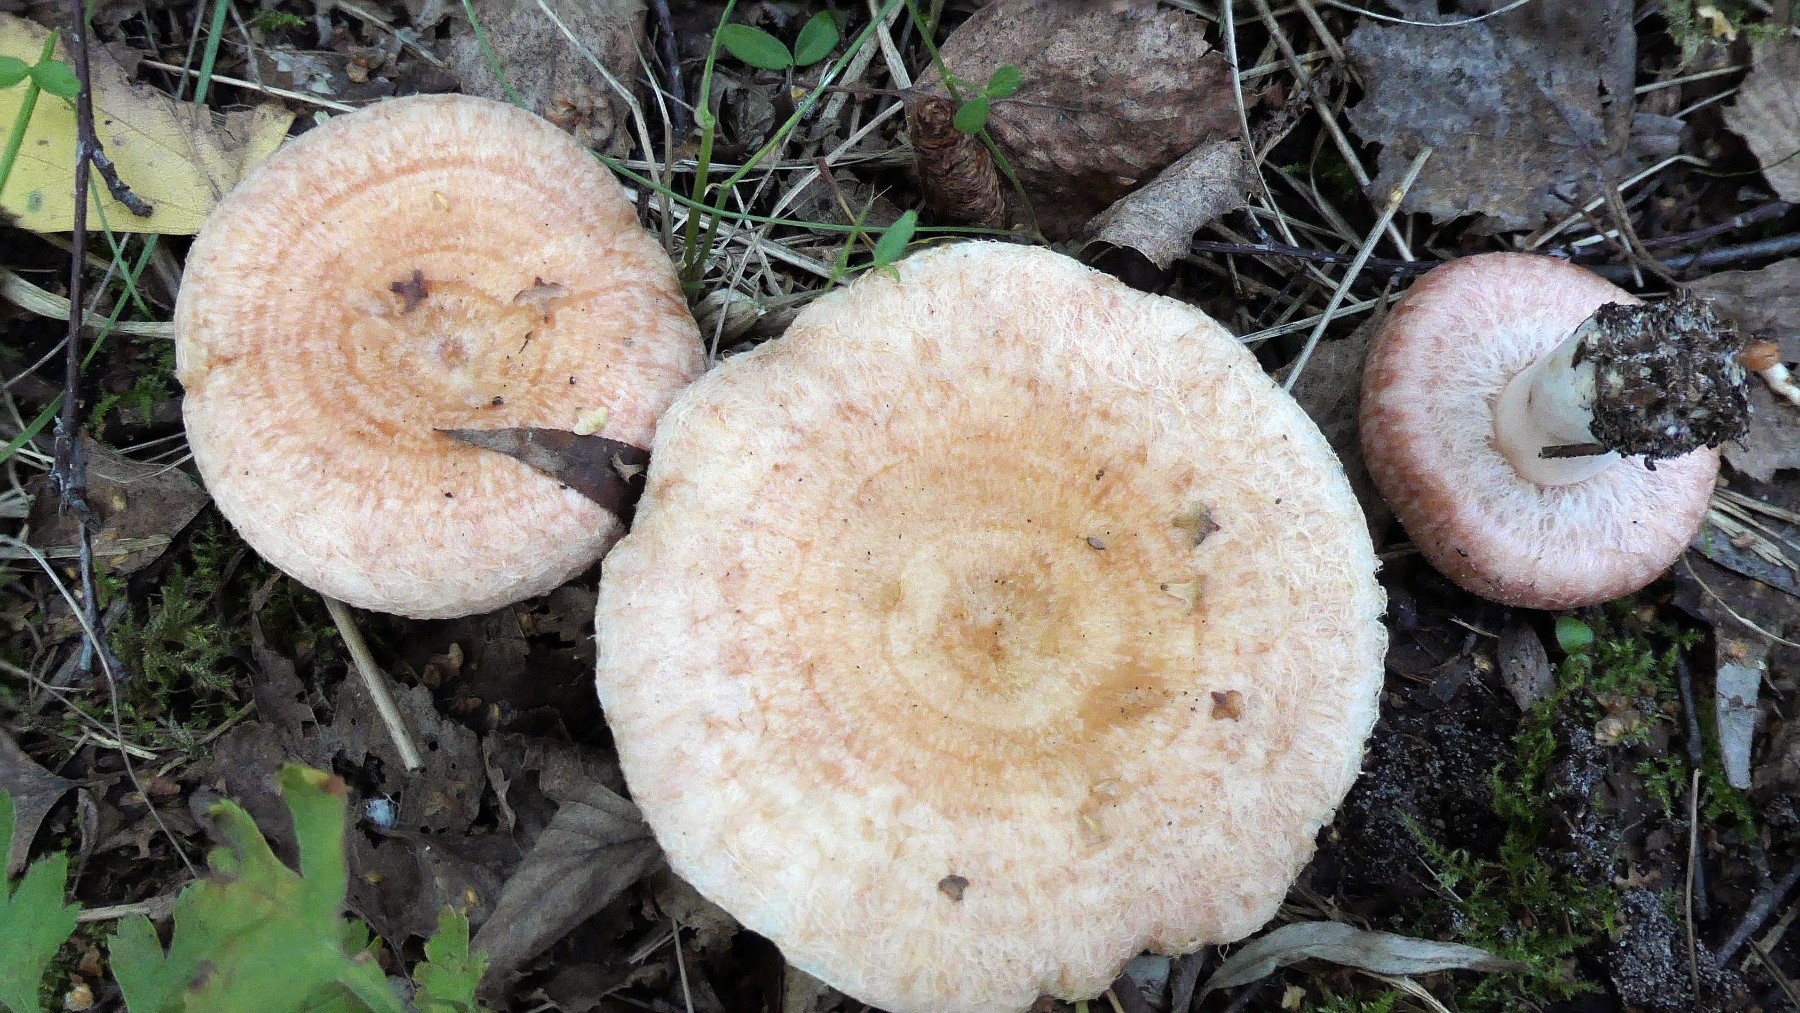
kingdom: Fungi
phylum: Basidiomycota
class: Agaricomycetes
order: Russulales
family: Russulaceae
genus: Lactarius
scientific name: Lactarius torminosus
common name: skægget mælkehat
